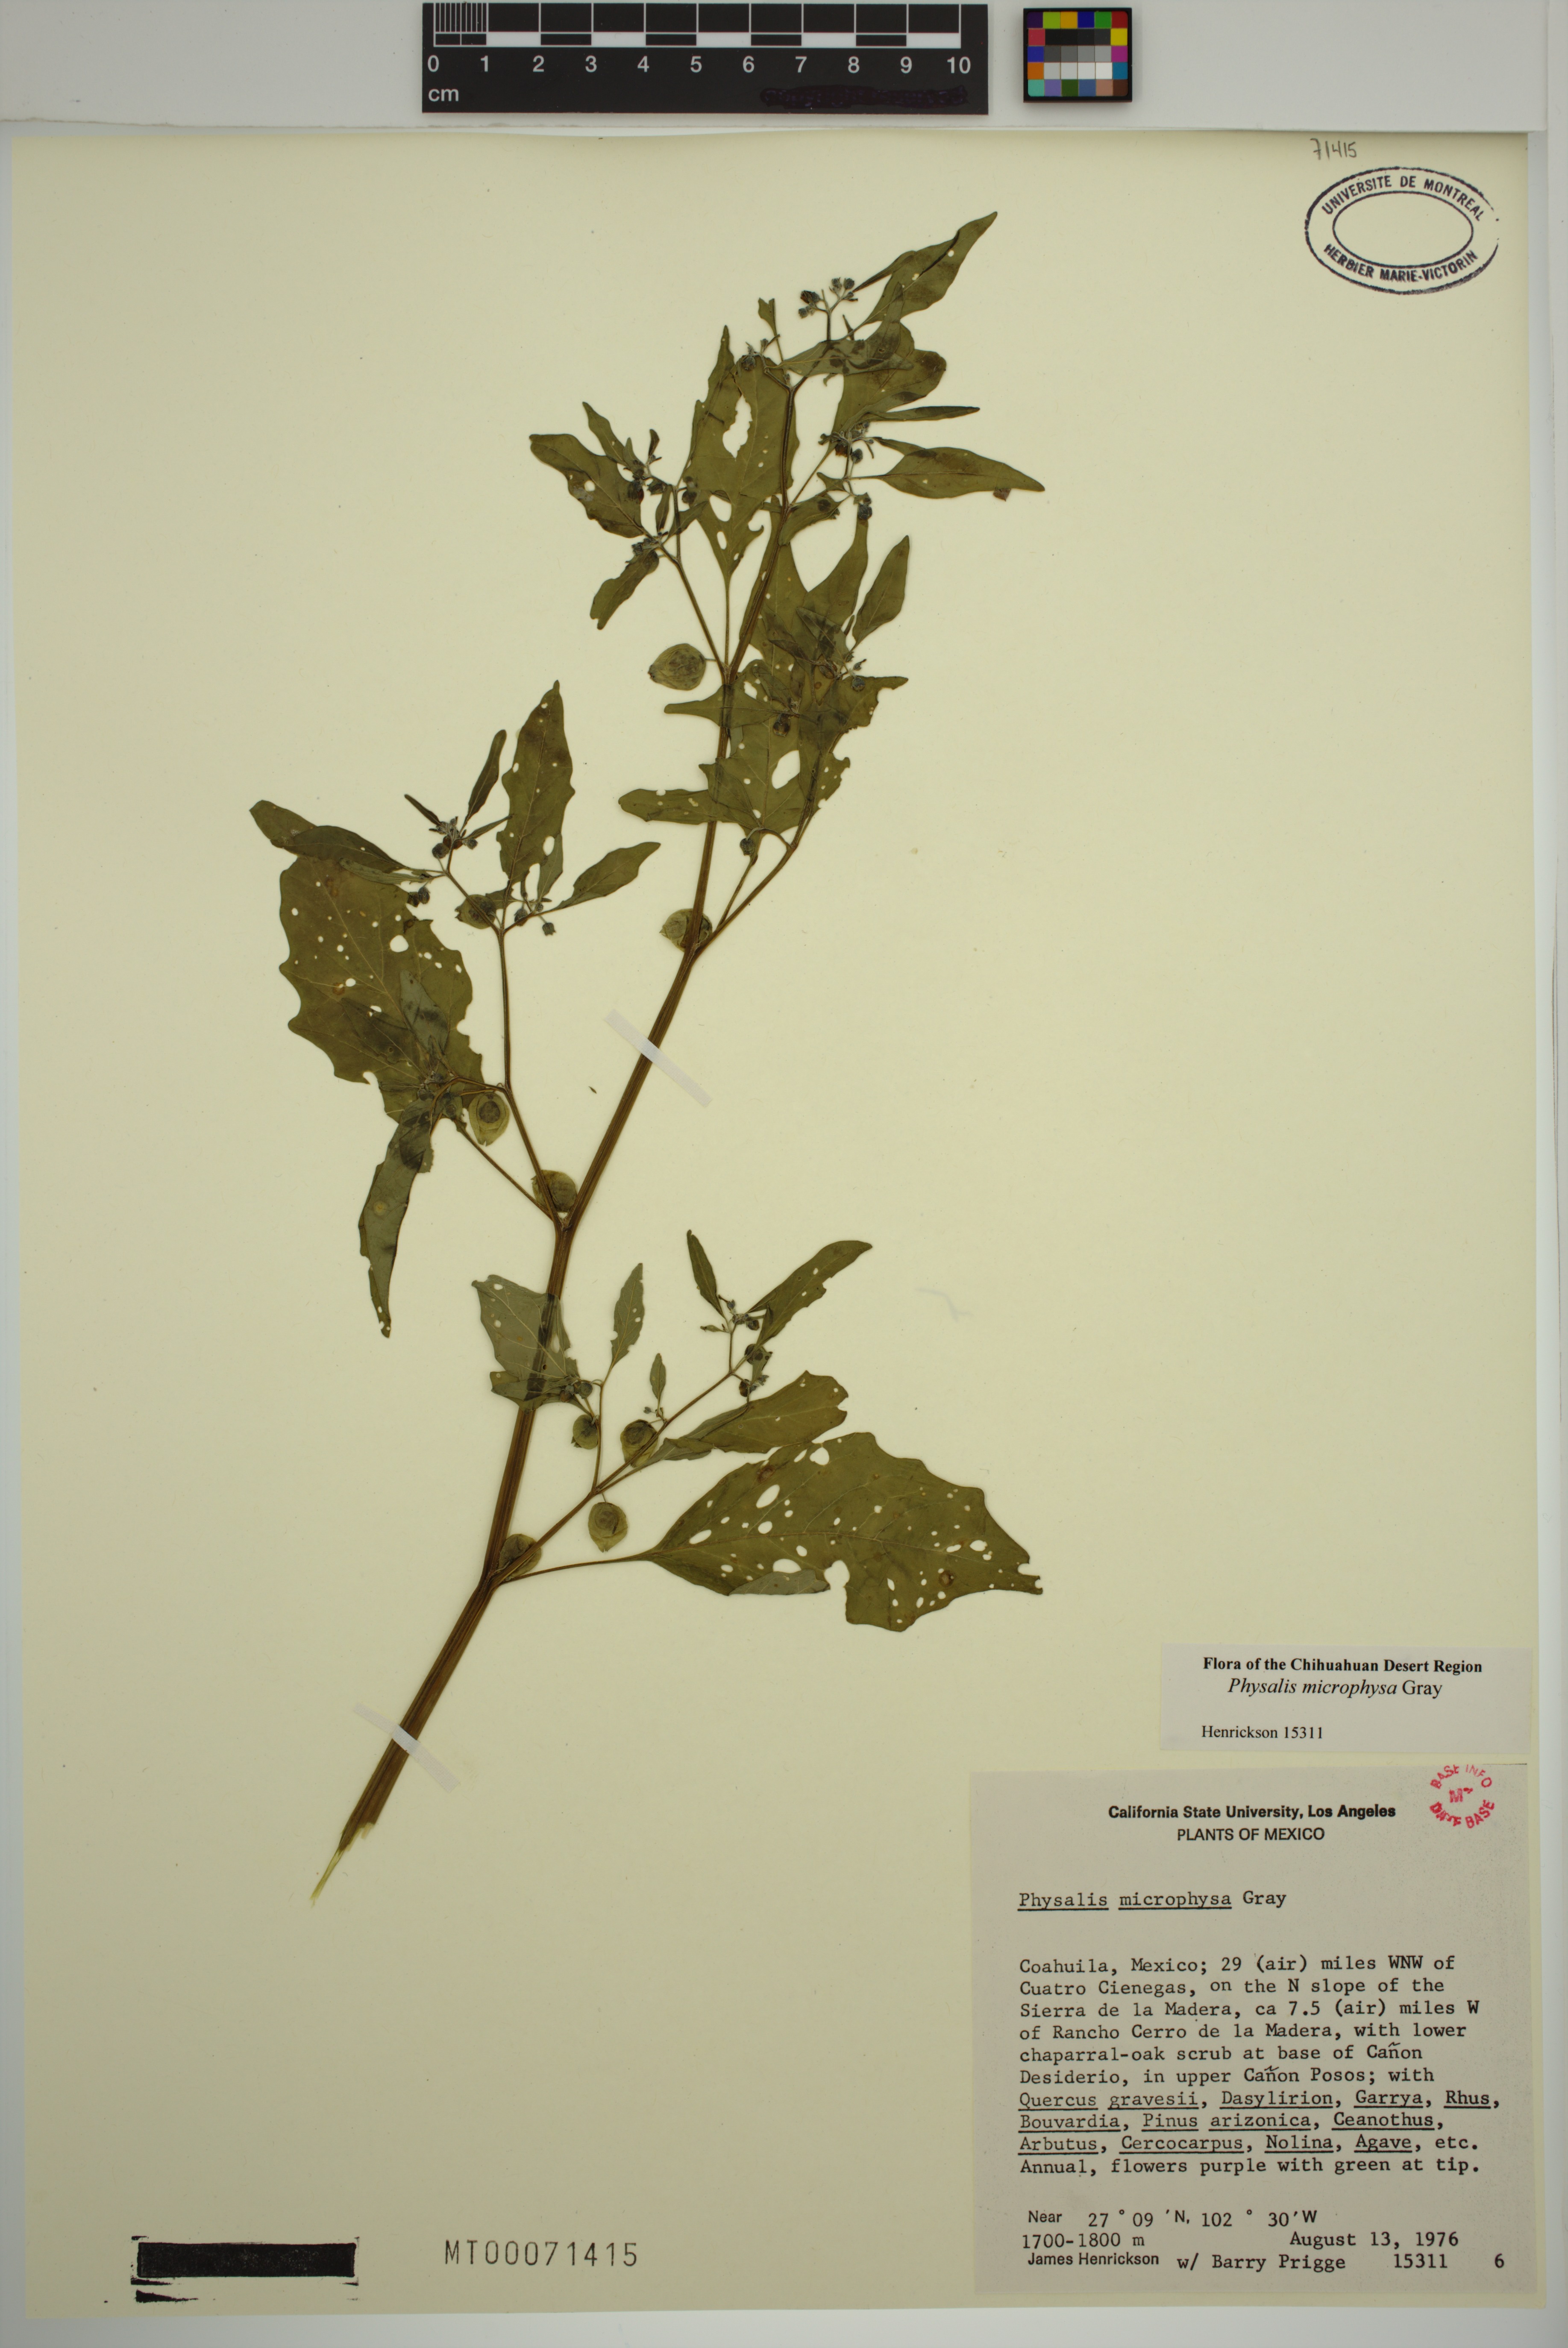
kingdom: Plantae
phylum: Tracheophyta
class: Magnoliopsida
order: Solanales
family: Solanaceae
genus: Physalis
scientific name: Physalis microphysa
